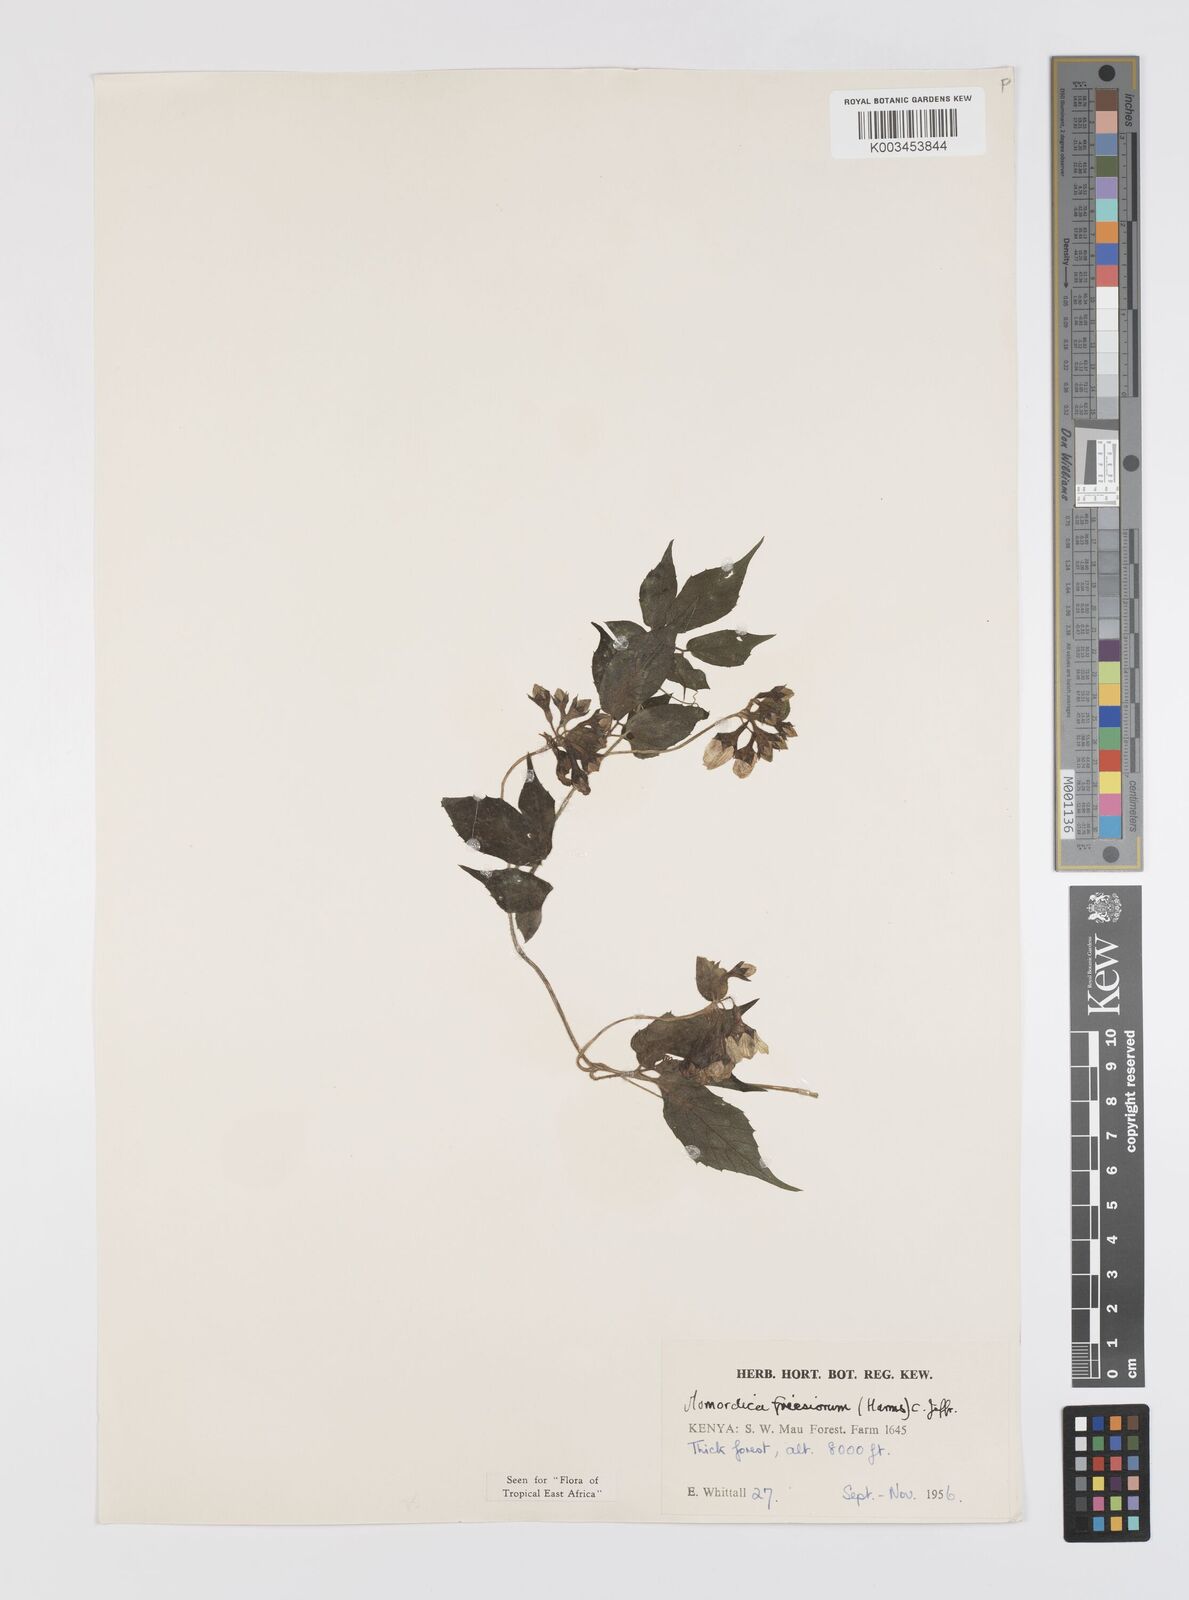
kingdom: Plantae
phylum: Tracheophyta
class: Magnoliopsida
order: Cucurbitales
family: Cucurbitaceae
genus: Momordica
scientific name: Momordica friesiorum
